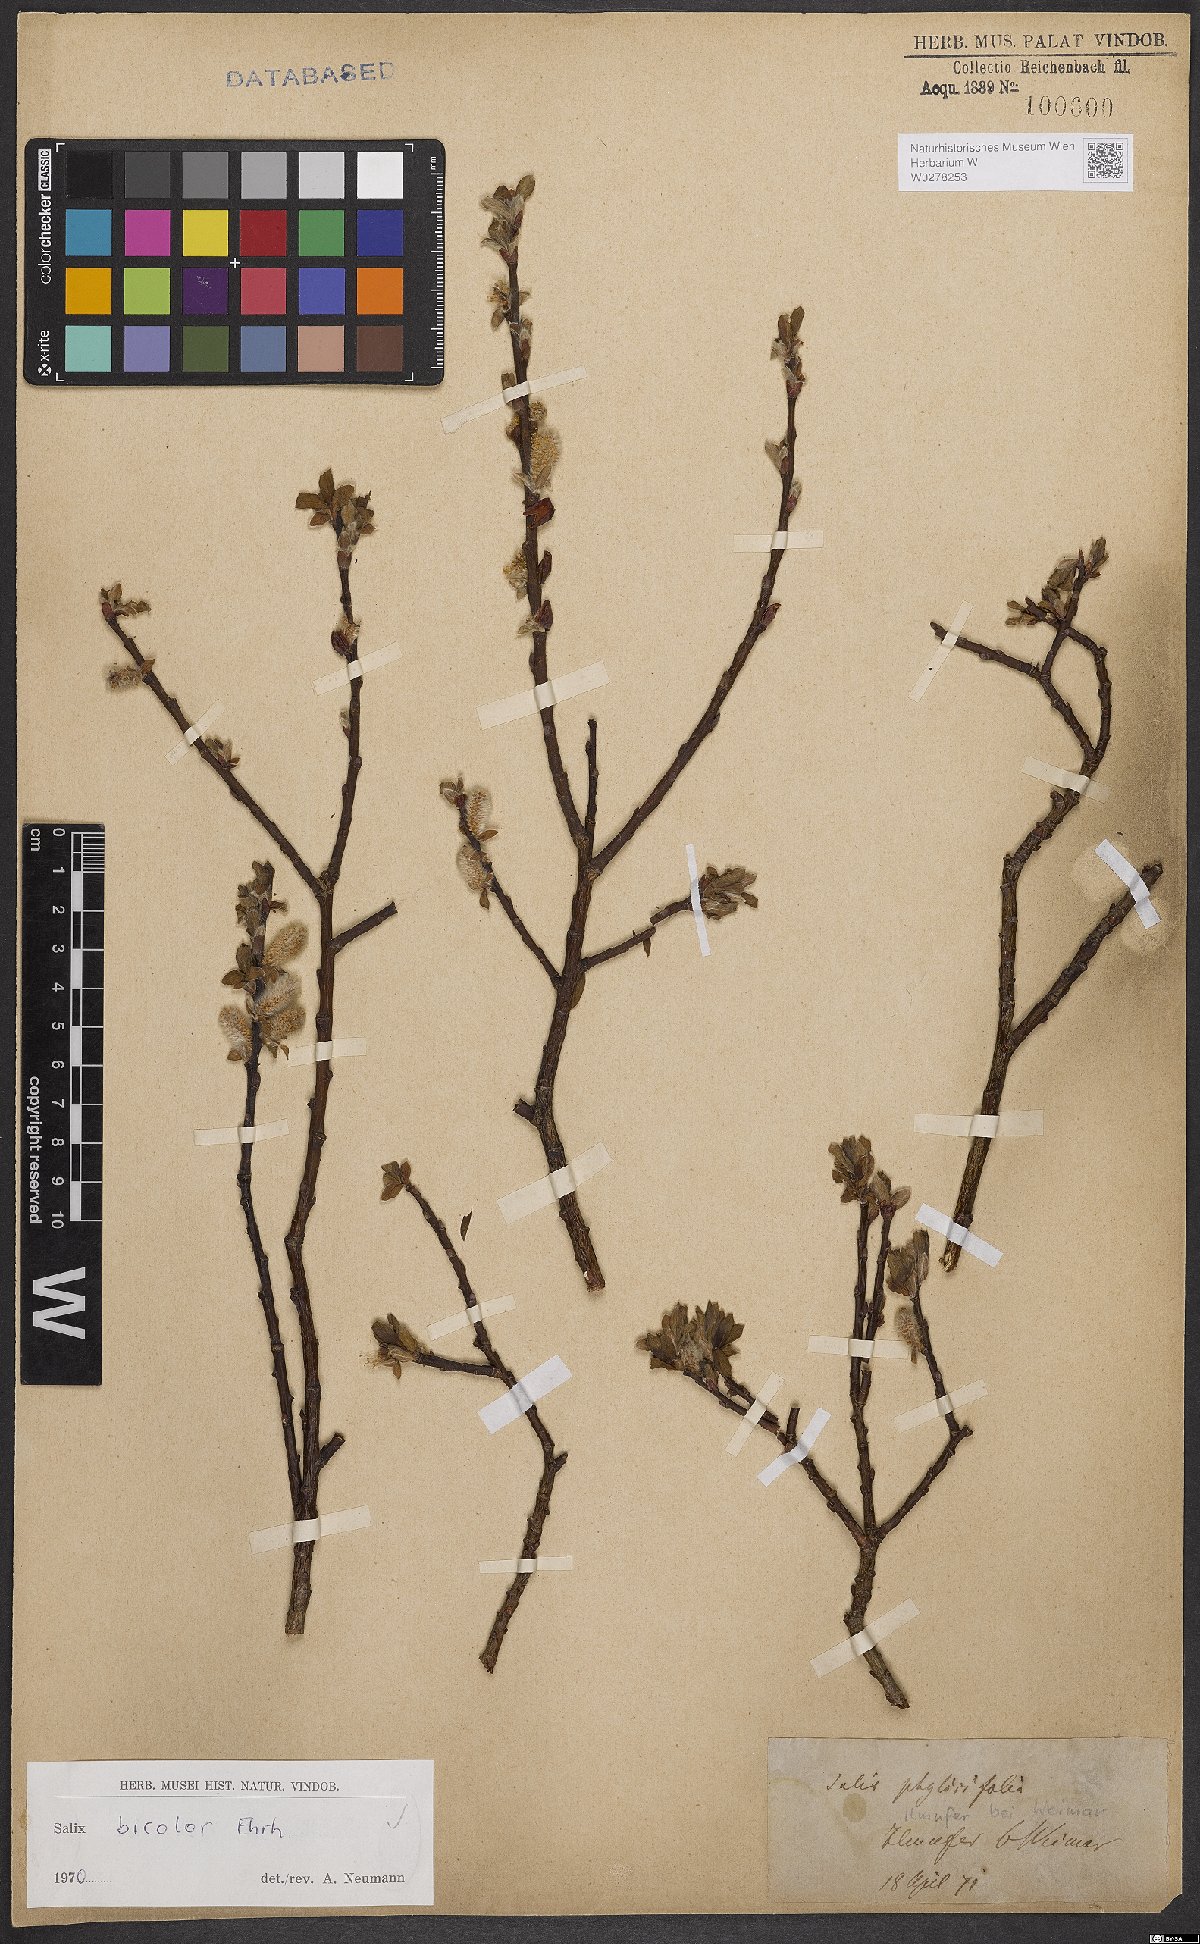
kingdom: Plantae
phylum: Tracheophyta
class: Magnoliopsida
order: Malpighiales
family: Salicaceae
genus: Salix
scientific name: Salix bicolor
